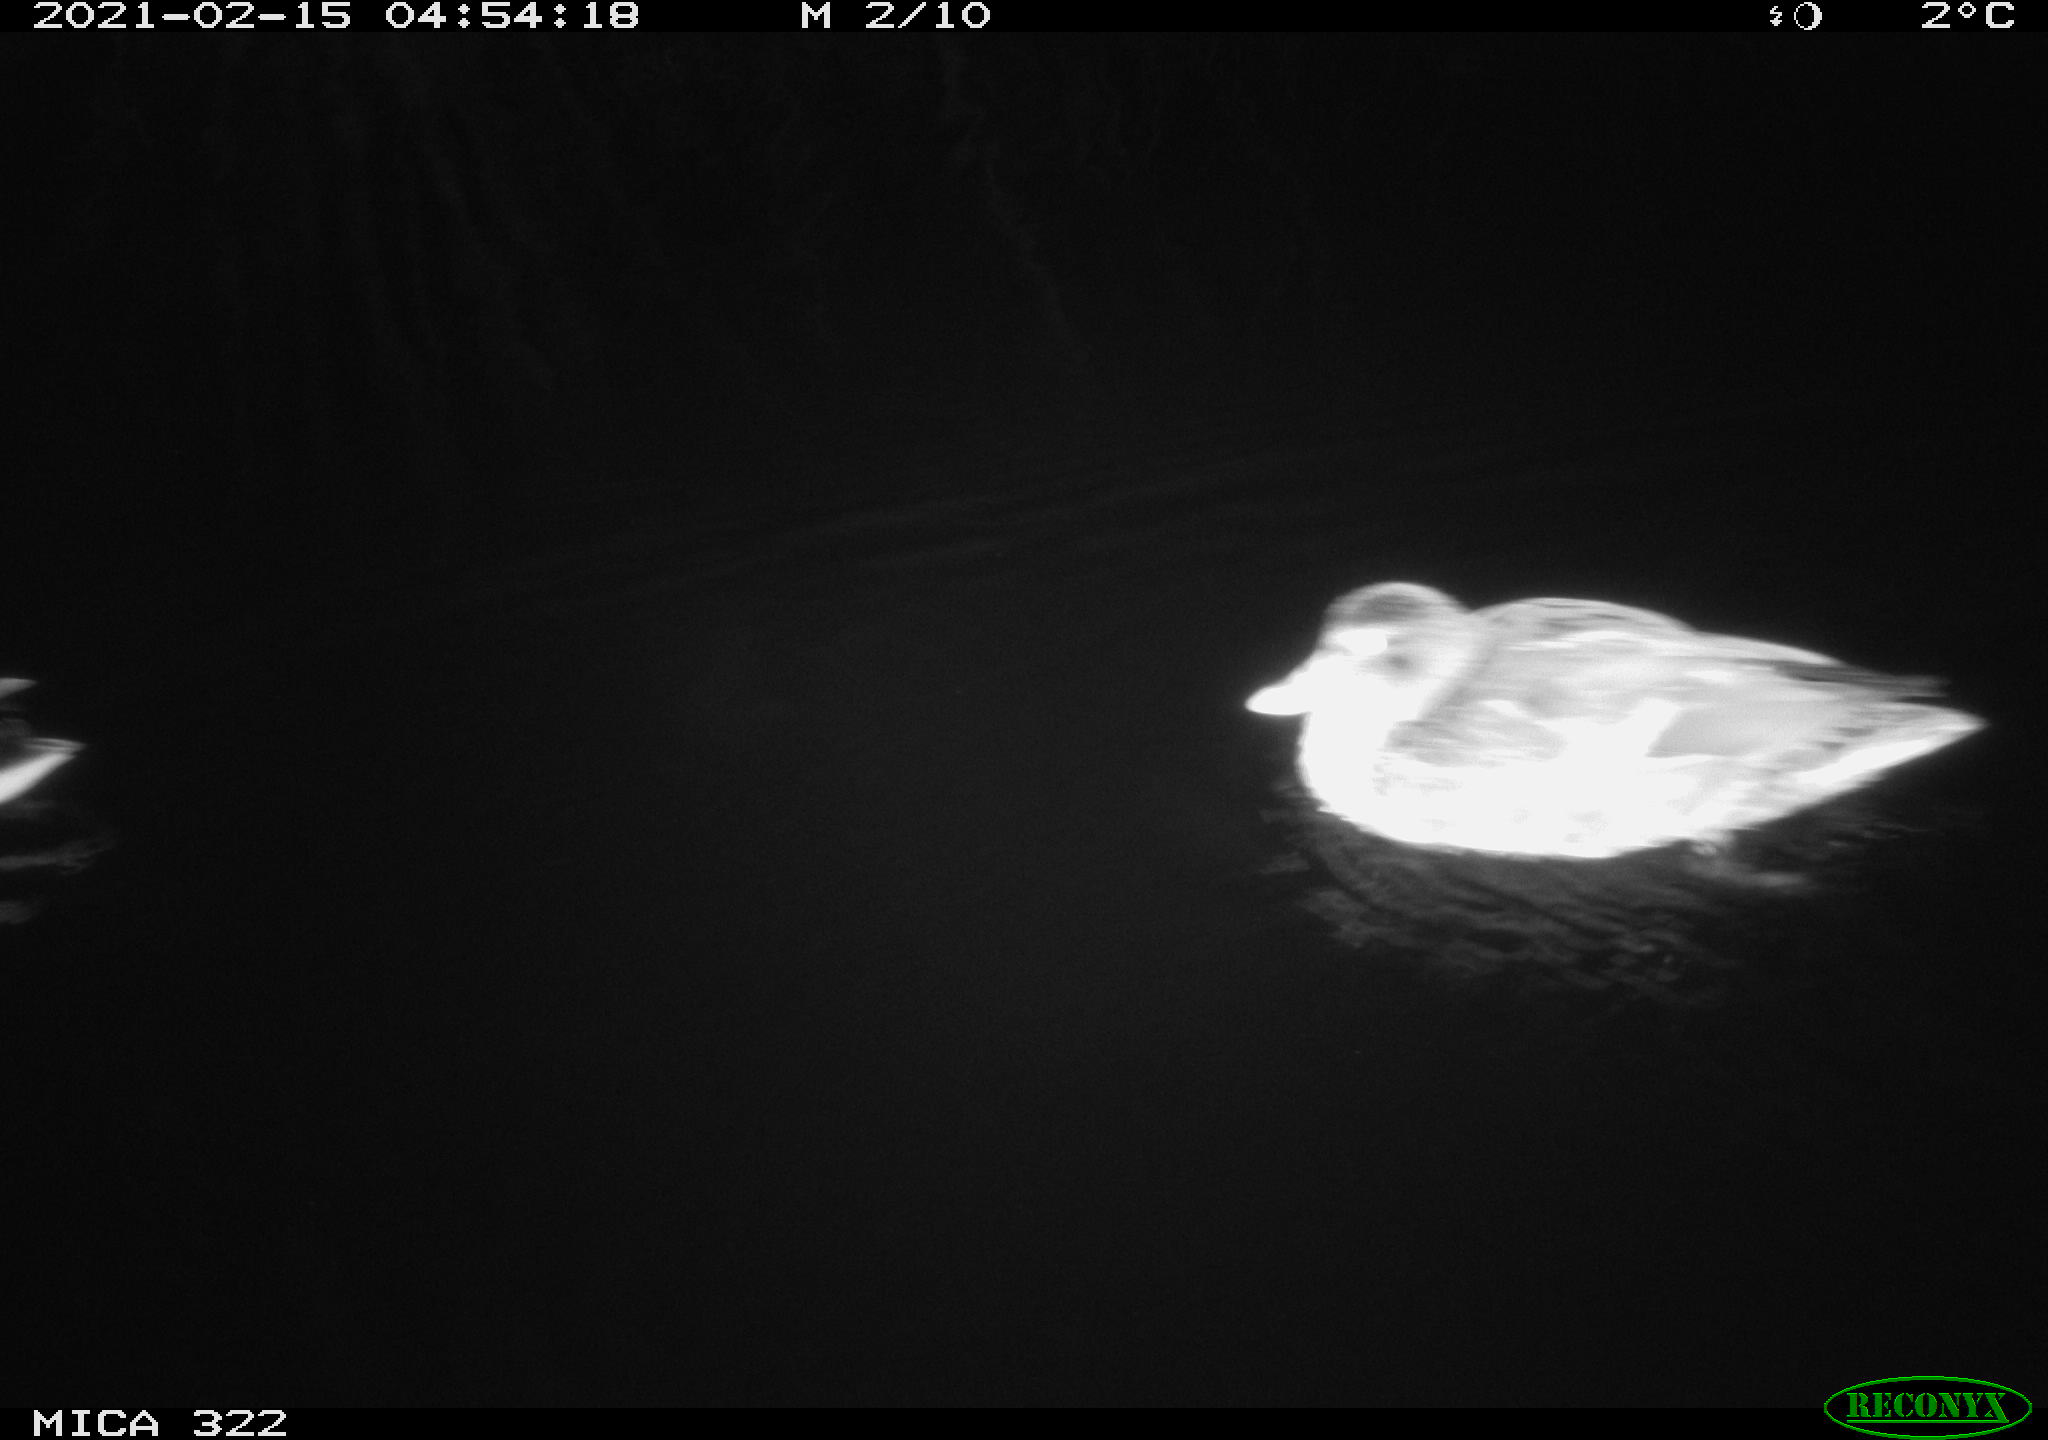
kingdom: Animalia
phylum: Chordata
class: Aves
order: Anseriformes
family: Anatidae
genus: Anas
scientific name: Anas platyrhynchos
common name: Mallard
